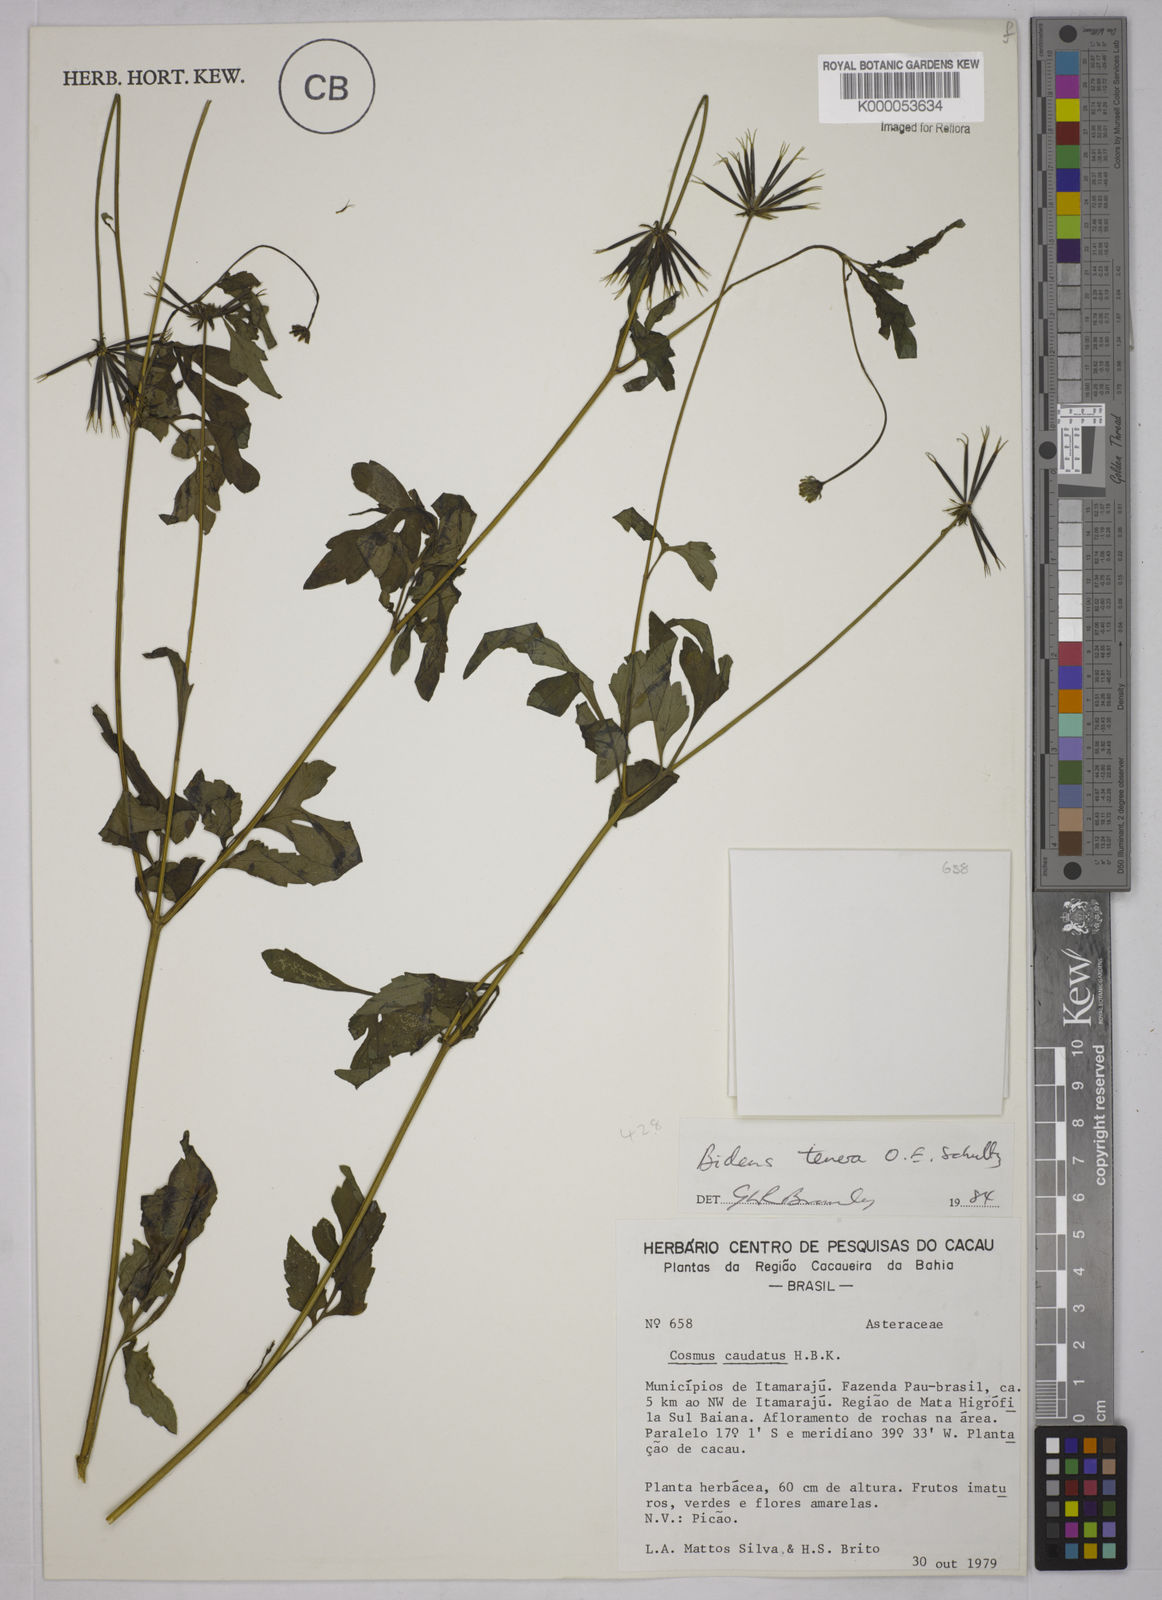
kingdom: Plantae
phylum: Tracheophyta
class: Magnoliopsida
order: Asterales
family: Asteraceae
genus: Bidens
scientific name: Bidens
